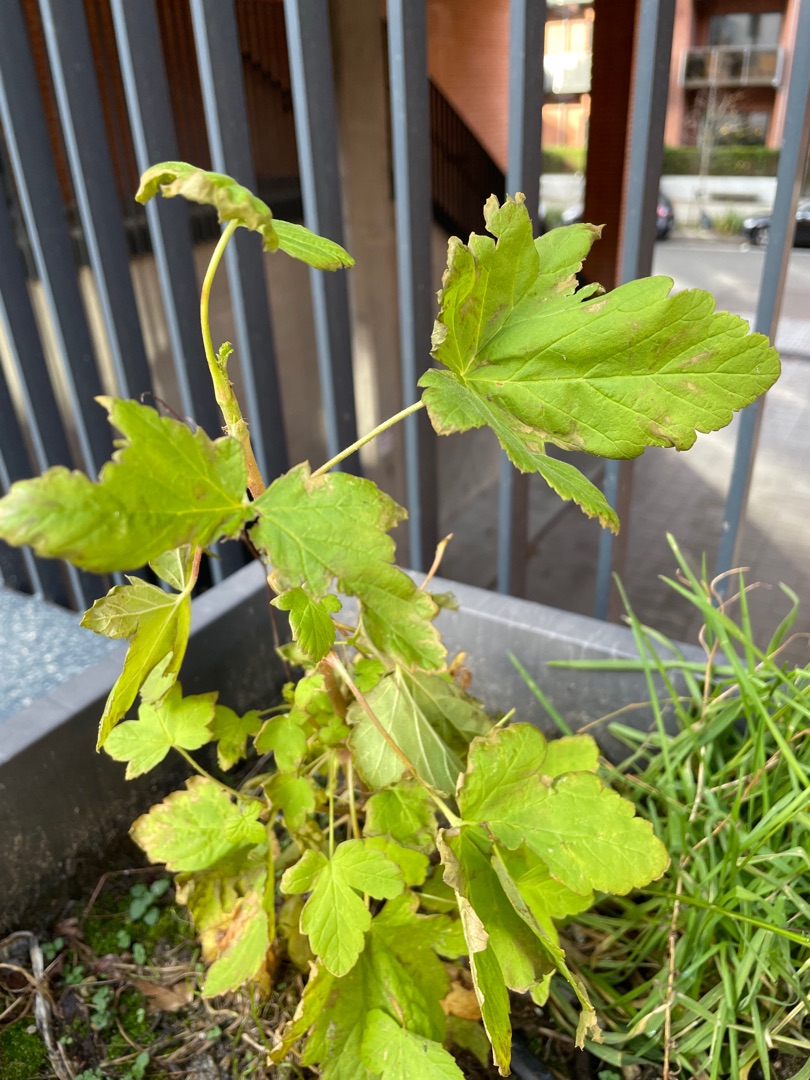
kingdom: Plantae
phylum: Tracheophyta
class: Magnoliopsida
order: Sapindales
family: Sapindaceae
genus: Acer
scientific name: Acer pseudoplatanus
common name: Ahorn
